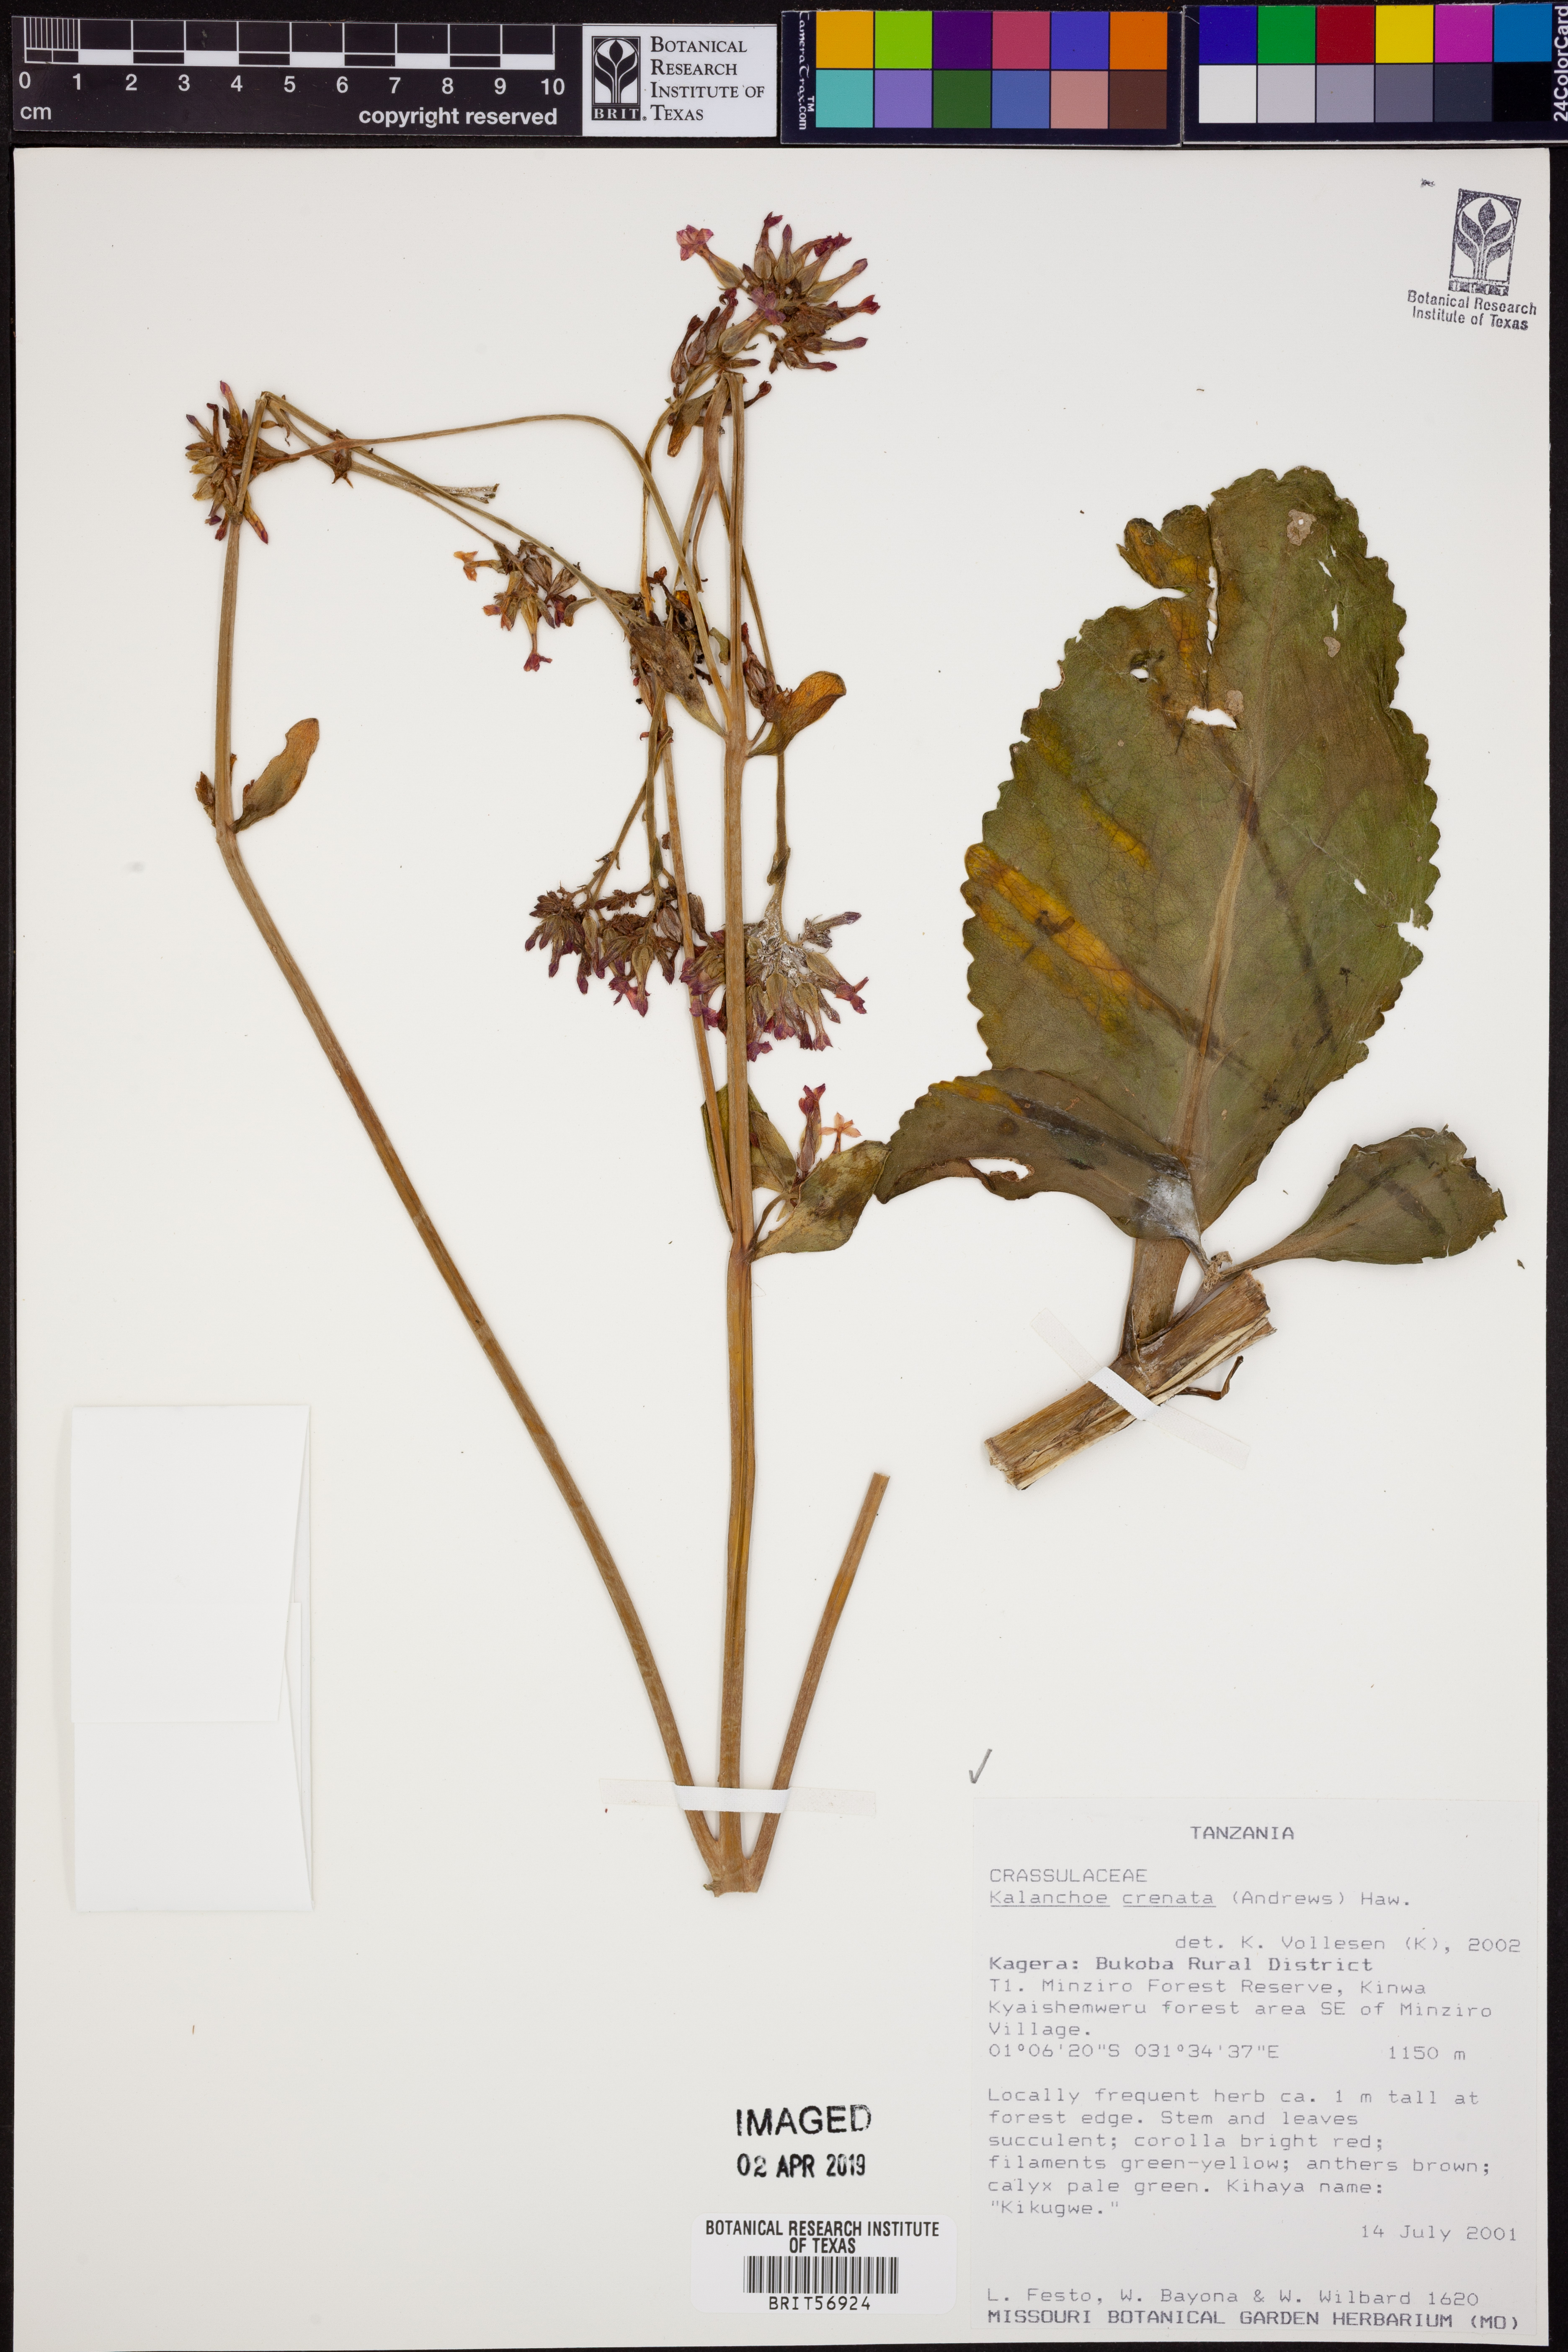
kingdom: Plantae
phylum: Tracheophyta
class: Magnoliopsida
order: Saxifragales
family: Crassulaceae
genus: Kalanchoe
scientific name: Kalanchoe crenata
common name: Neverdie
